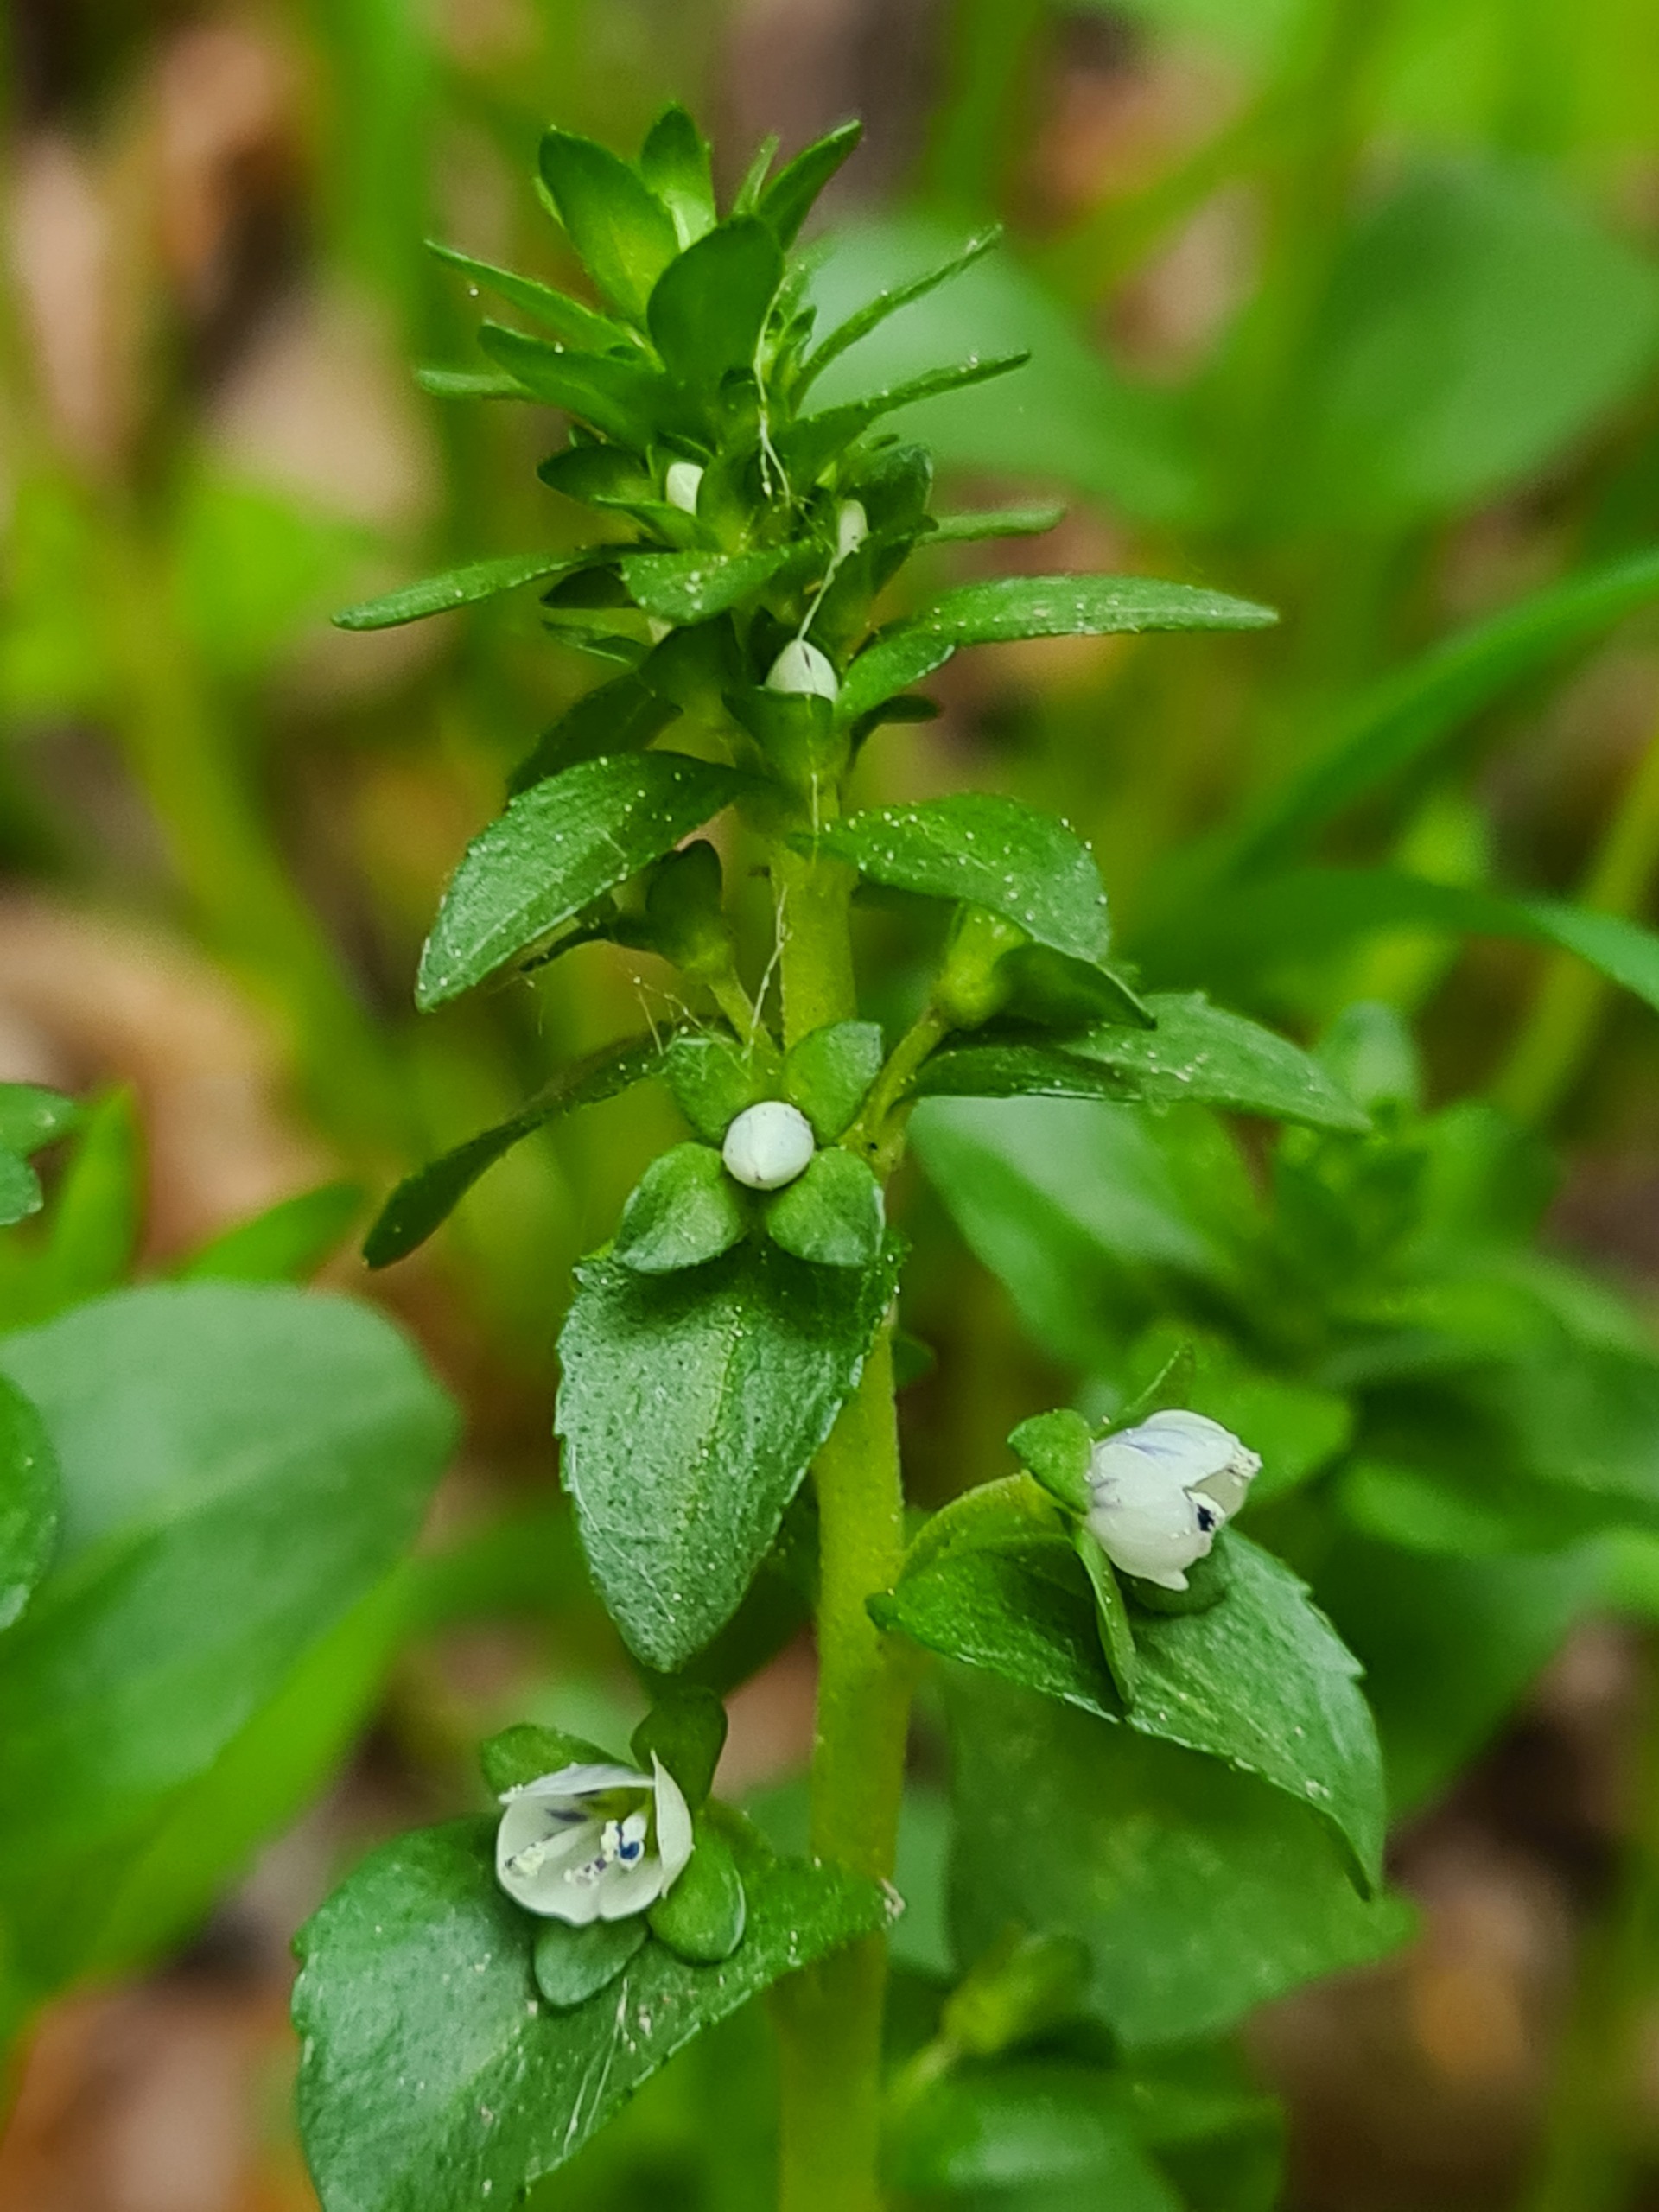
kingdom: Plantae
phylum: Tracheophyta
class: Magnoliopsida
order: Lamiales
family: Plantaginaceae
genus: Veronica
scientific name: Veronica serpyllifolia
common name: Glat ærenpris
